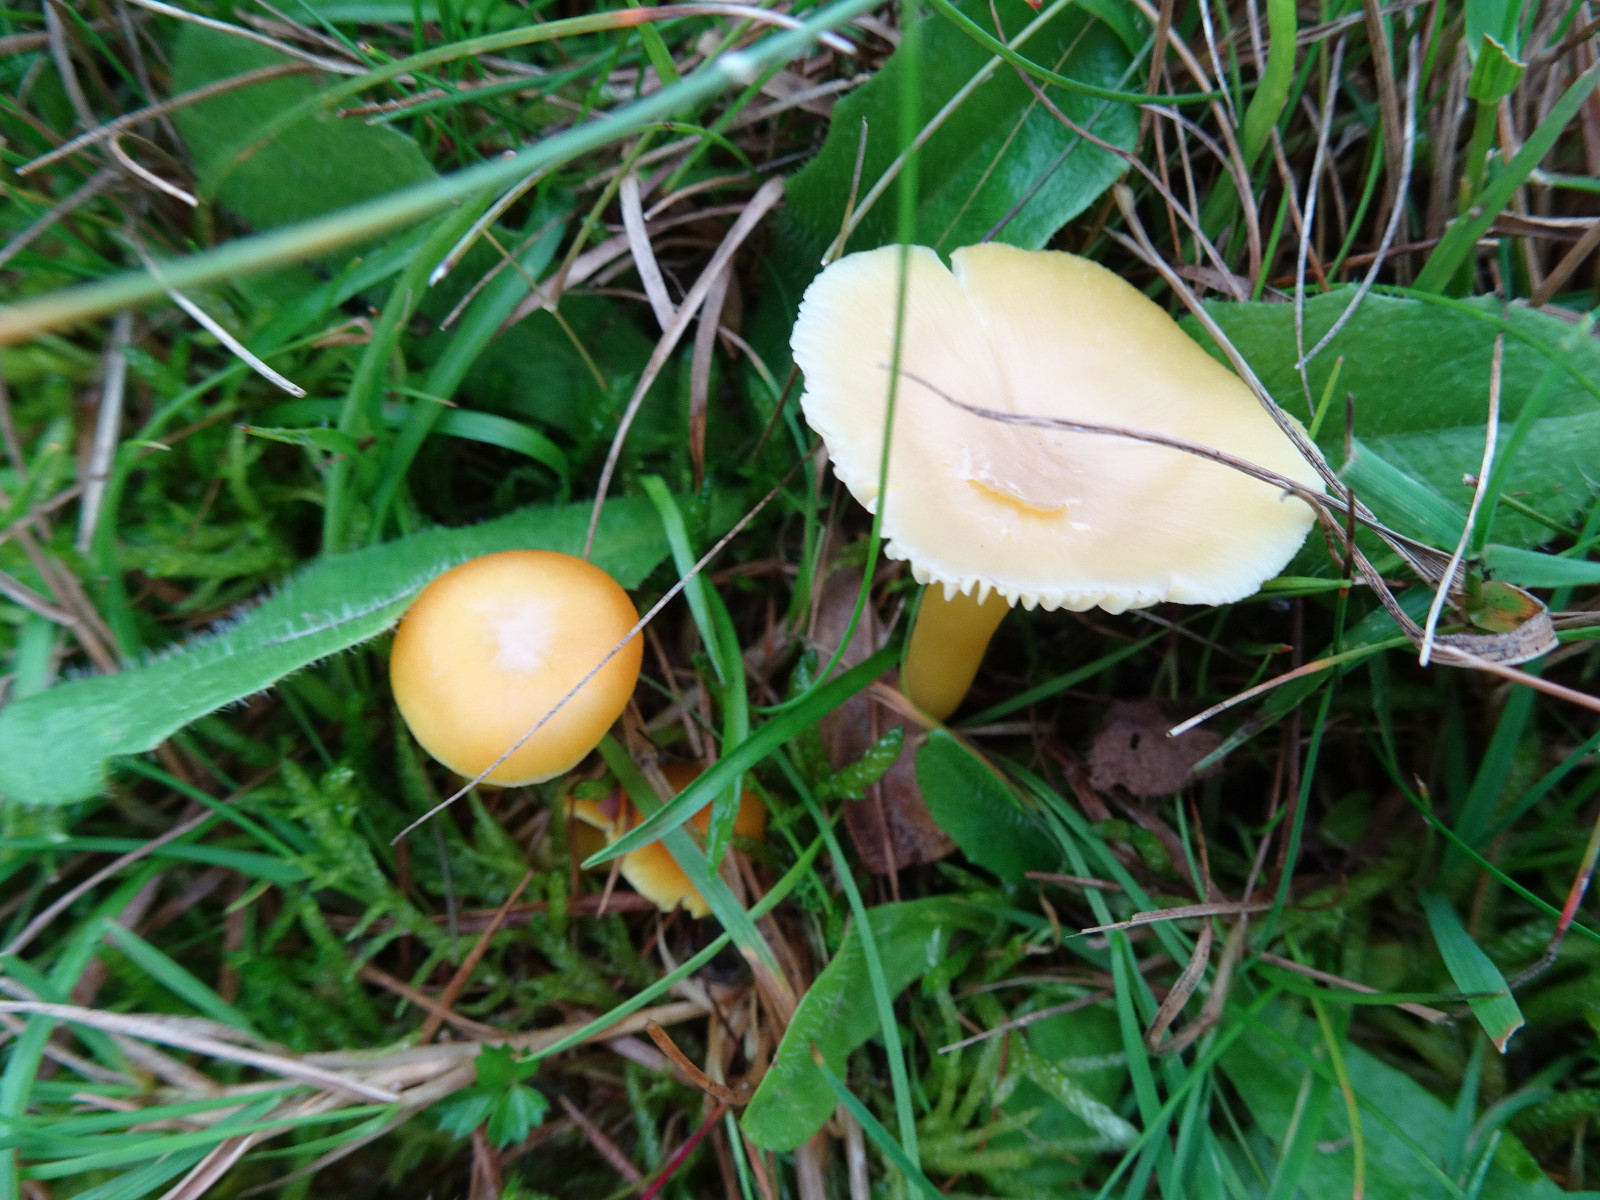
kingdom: Fungi
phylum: Basidiomycota
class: Agaricomycetes
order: Agaricales
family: Hygrophoraceae
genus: Hygrocybe
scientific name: Hygrocybe ceracea
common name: voksgul vokshat
